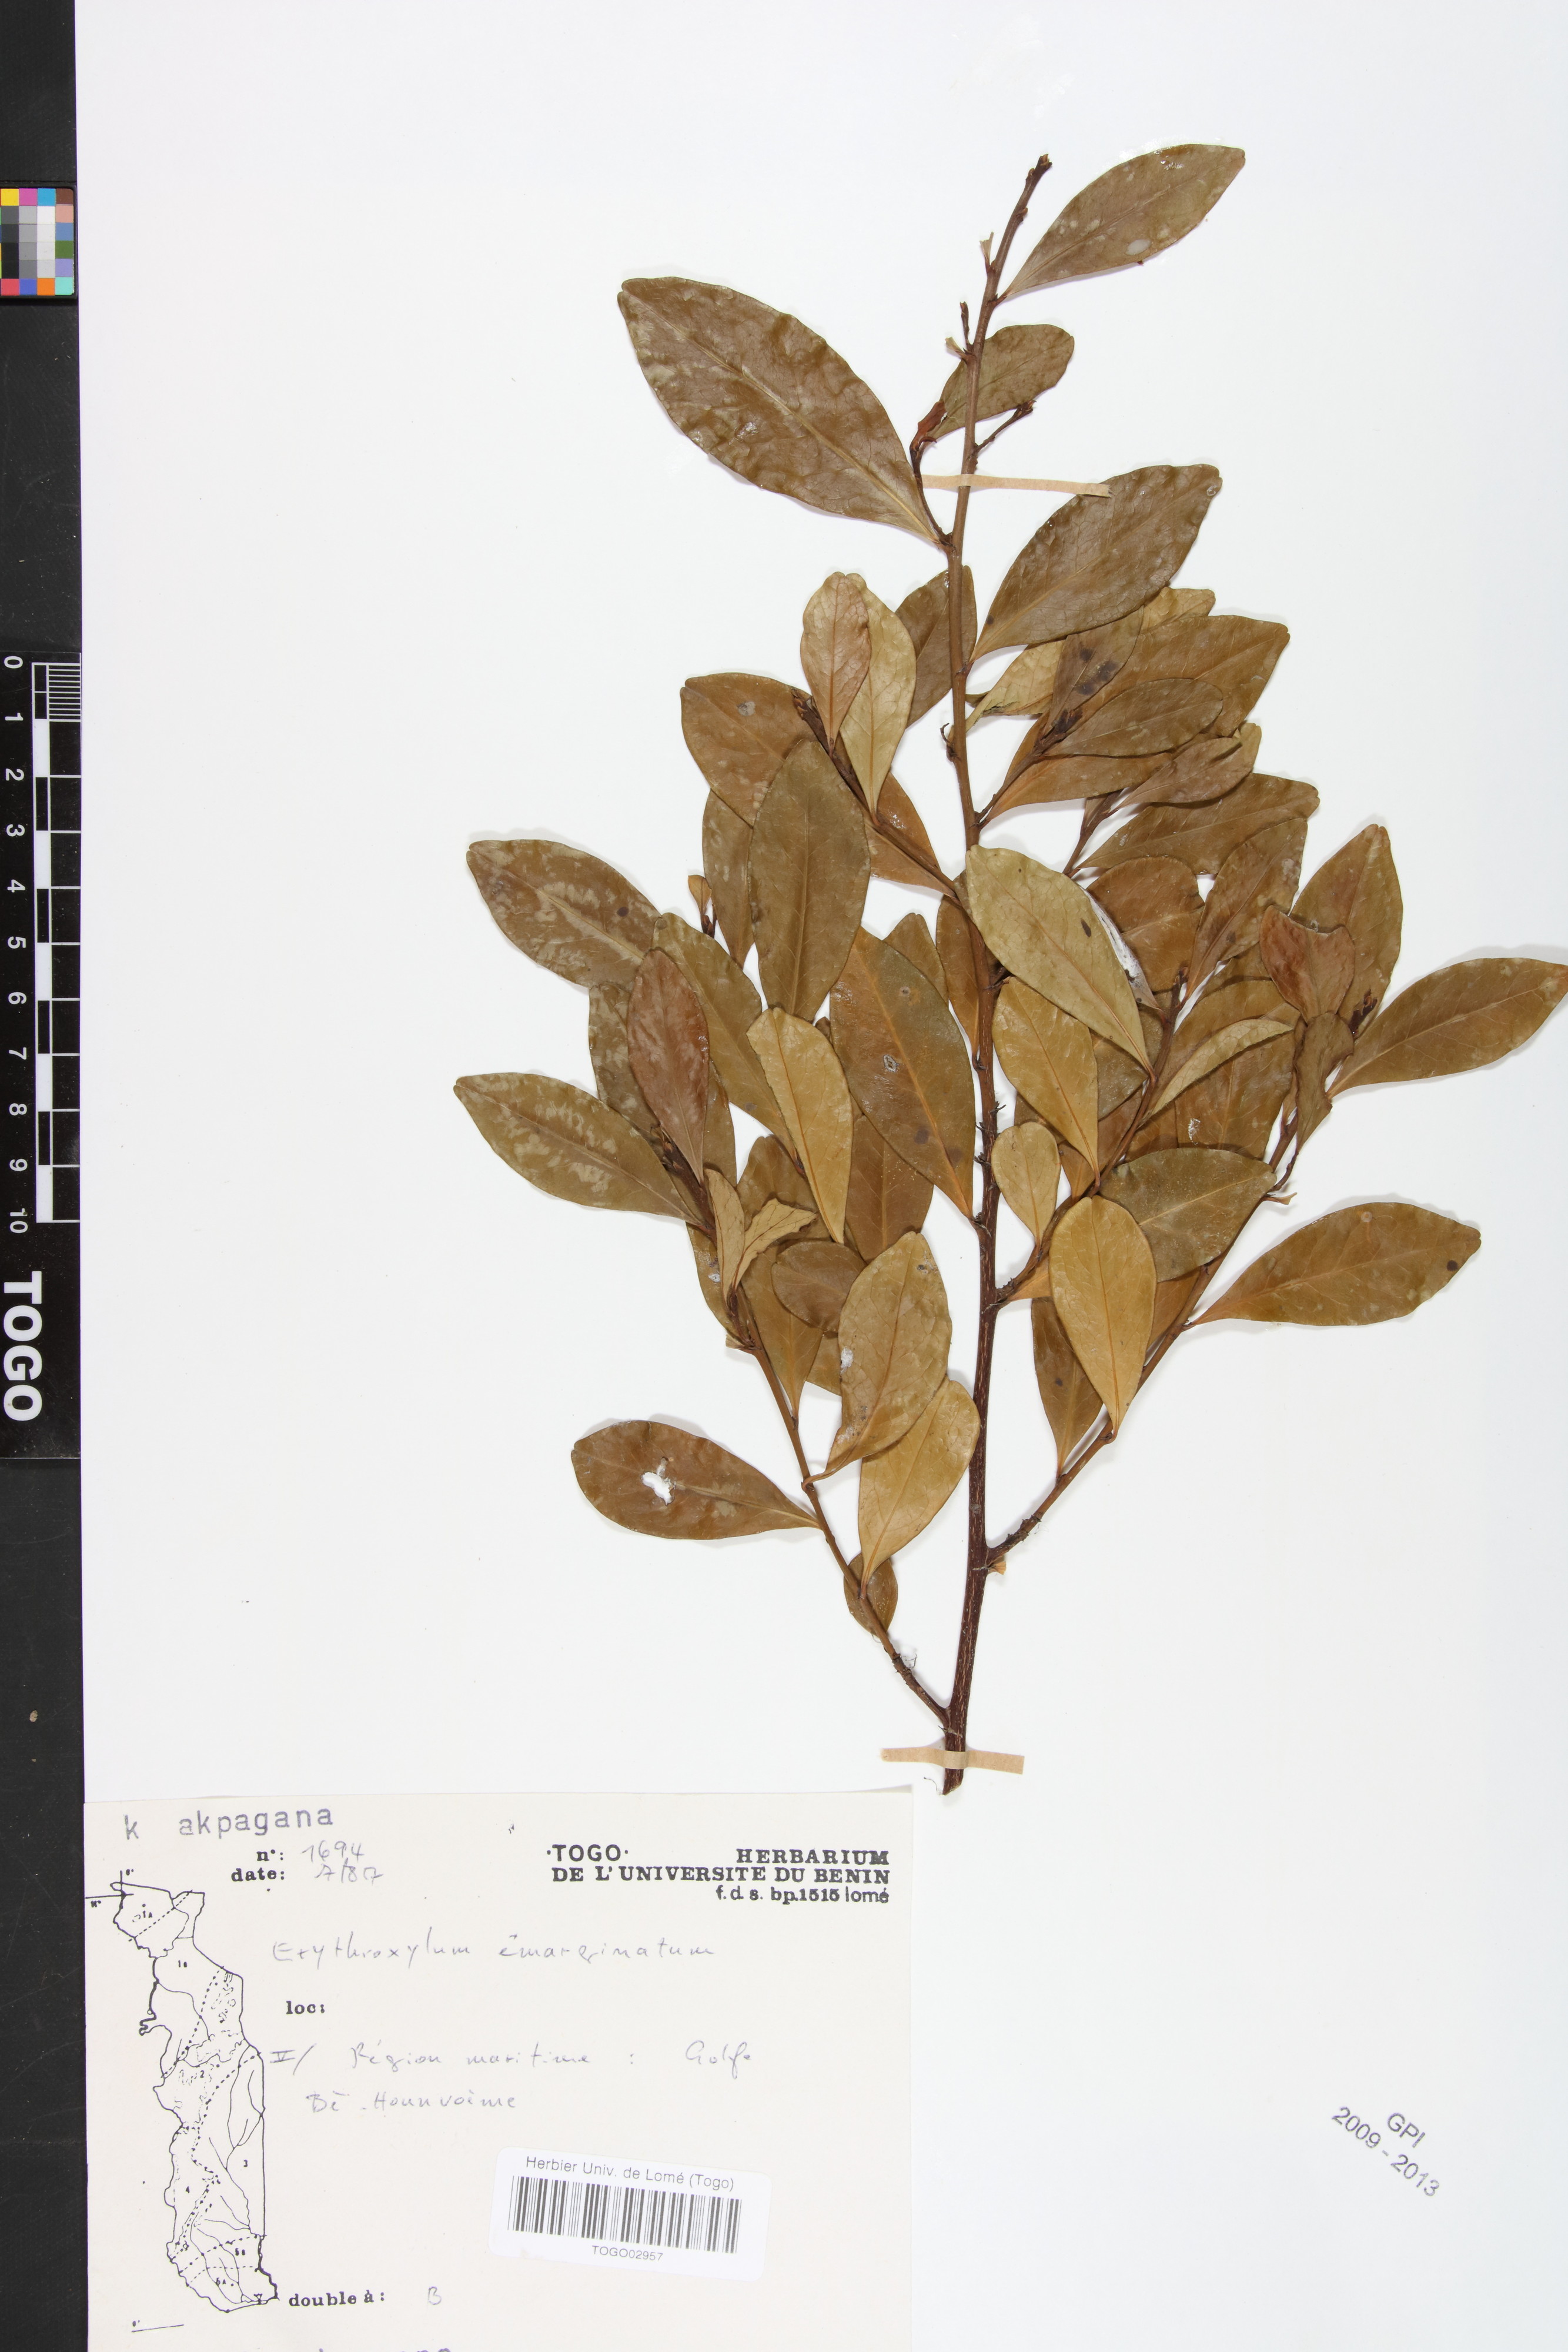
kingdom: Plantae
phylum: Tracheophyta
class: Magnoliopsida
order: Malpighiales
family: Erythroxylaceae
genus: Erythroxylum
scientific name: Erythroxylum emarginatum
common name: African coca-tree
